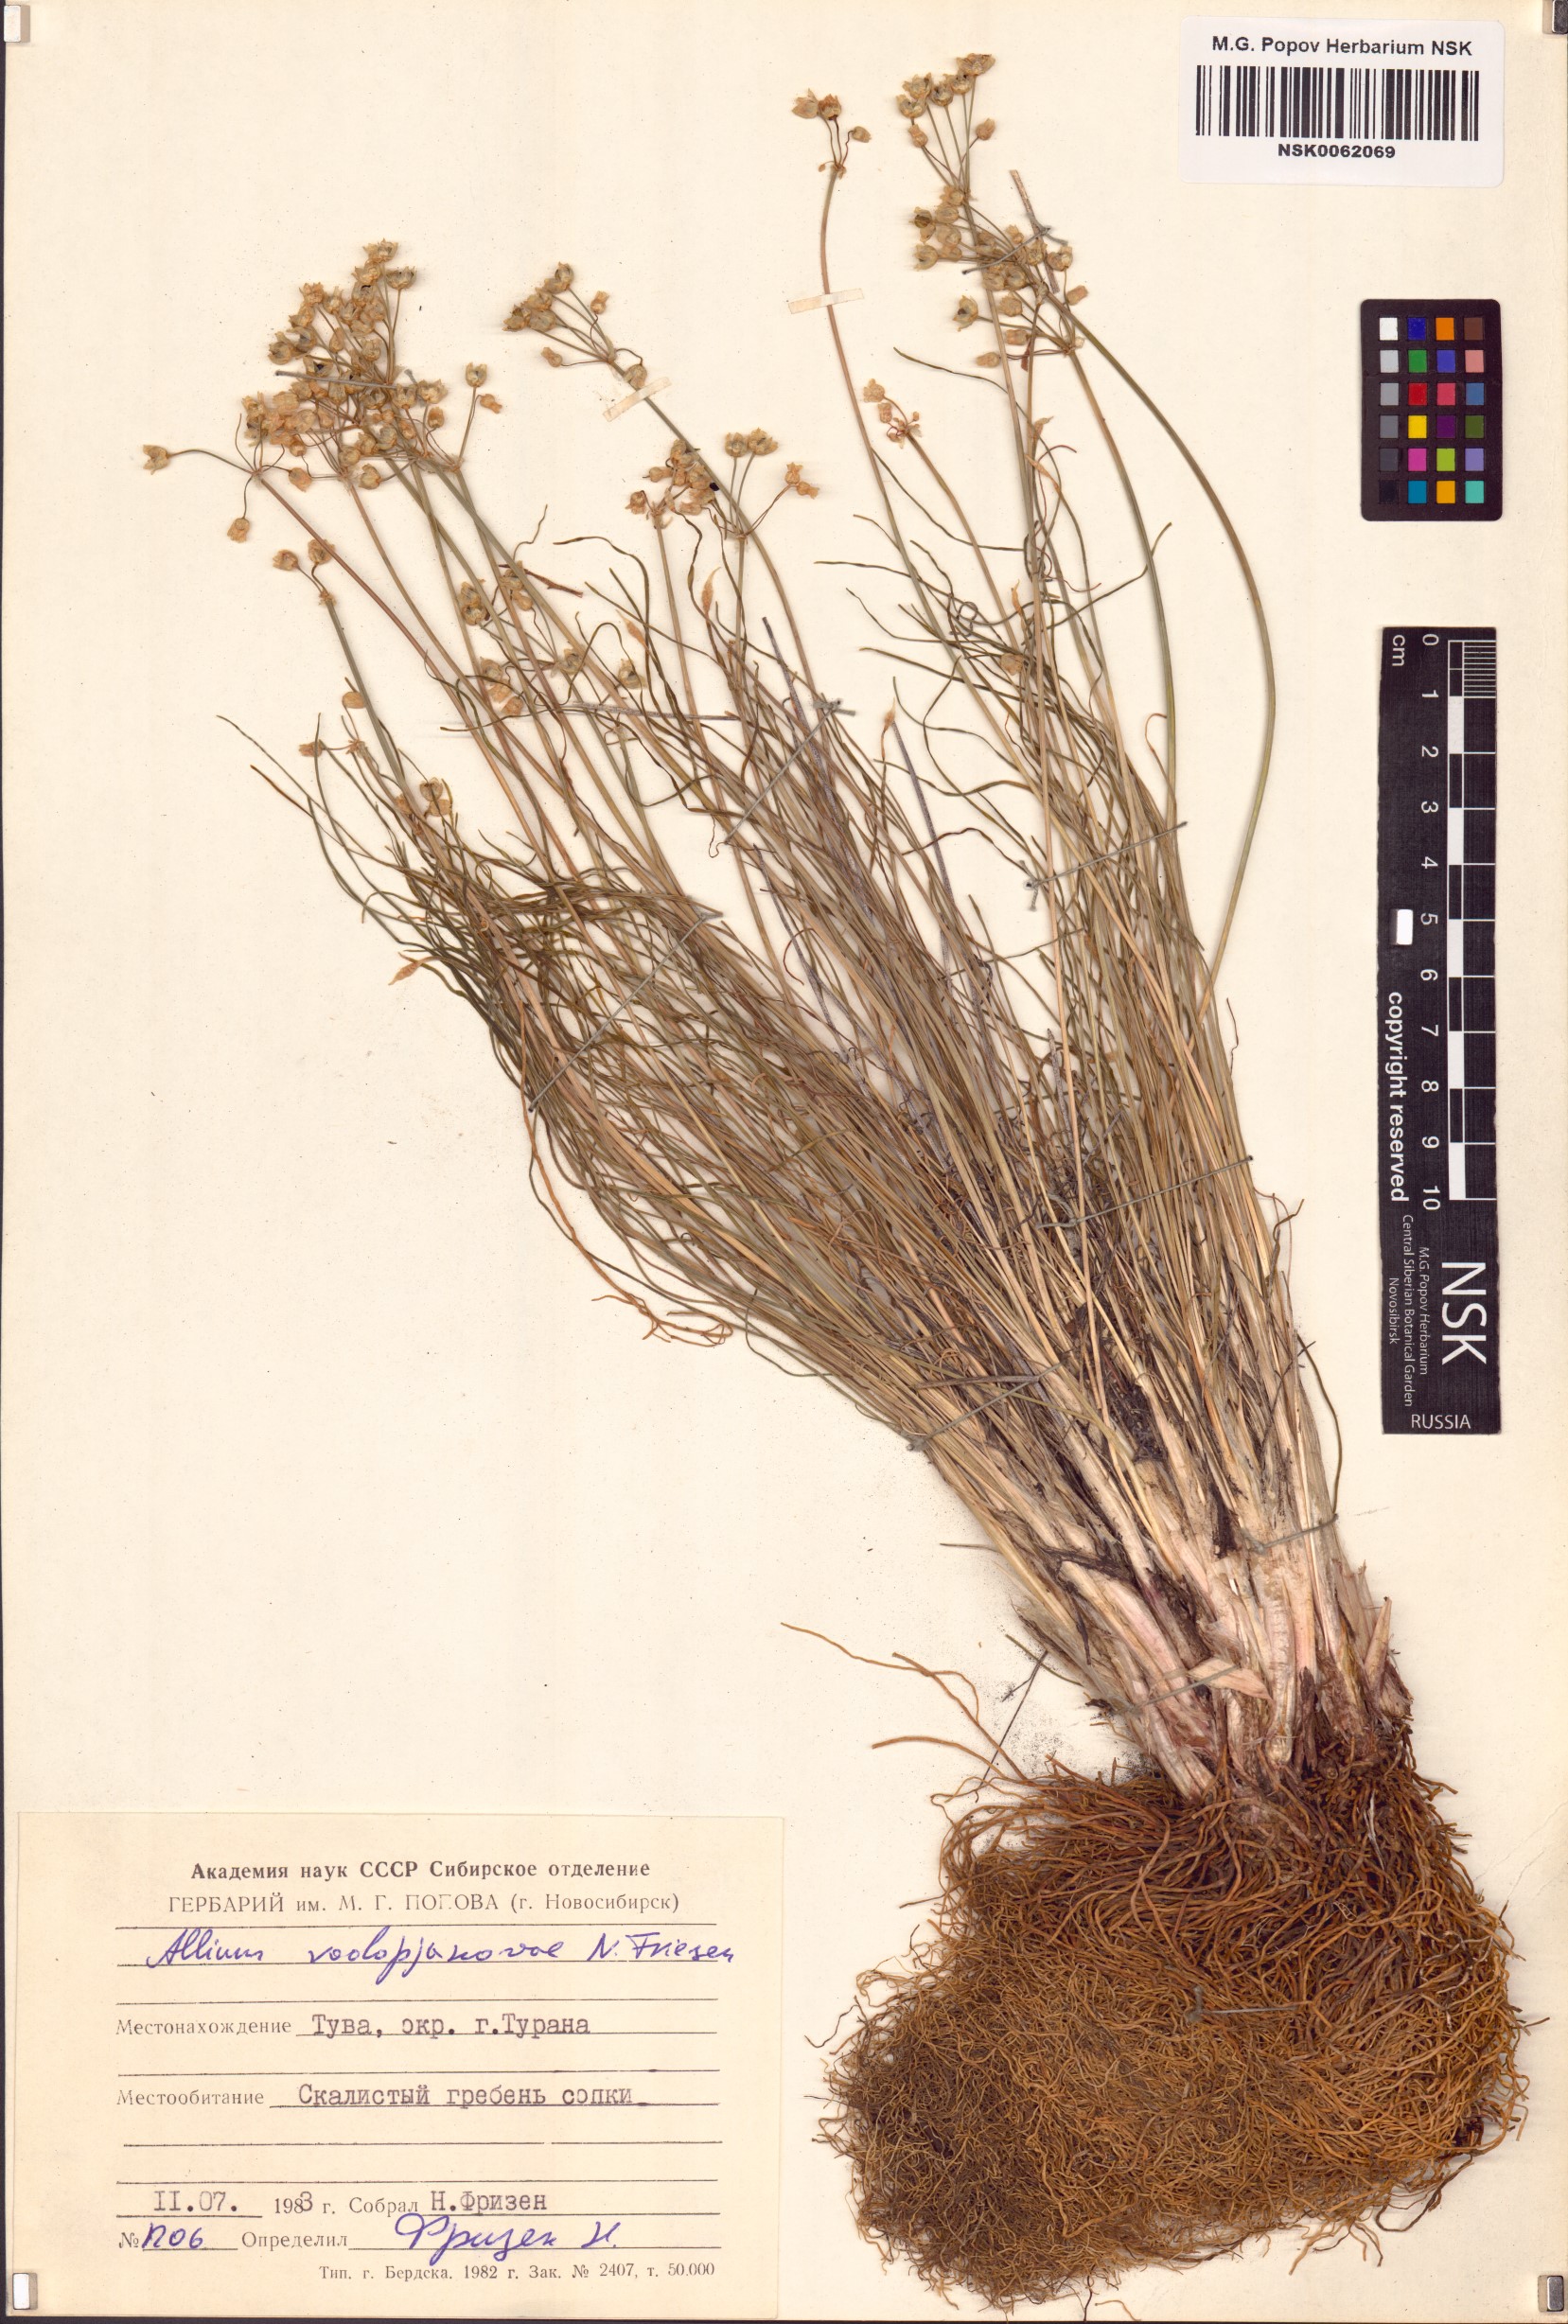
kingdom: Plantae
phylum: Tracheophyta
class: Liliopsida
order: Asparagales
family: Amaryllidaceae
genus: Allium
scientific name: Allium vodopjanovae
